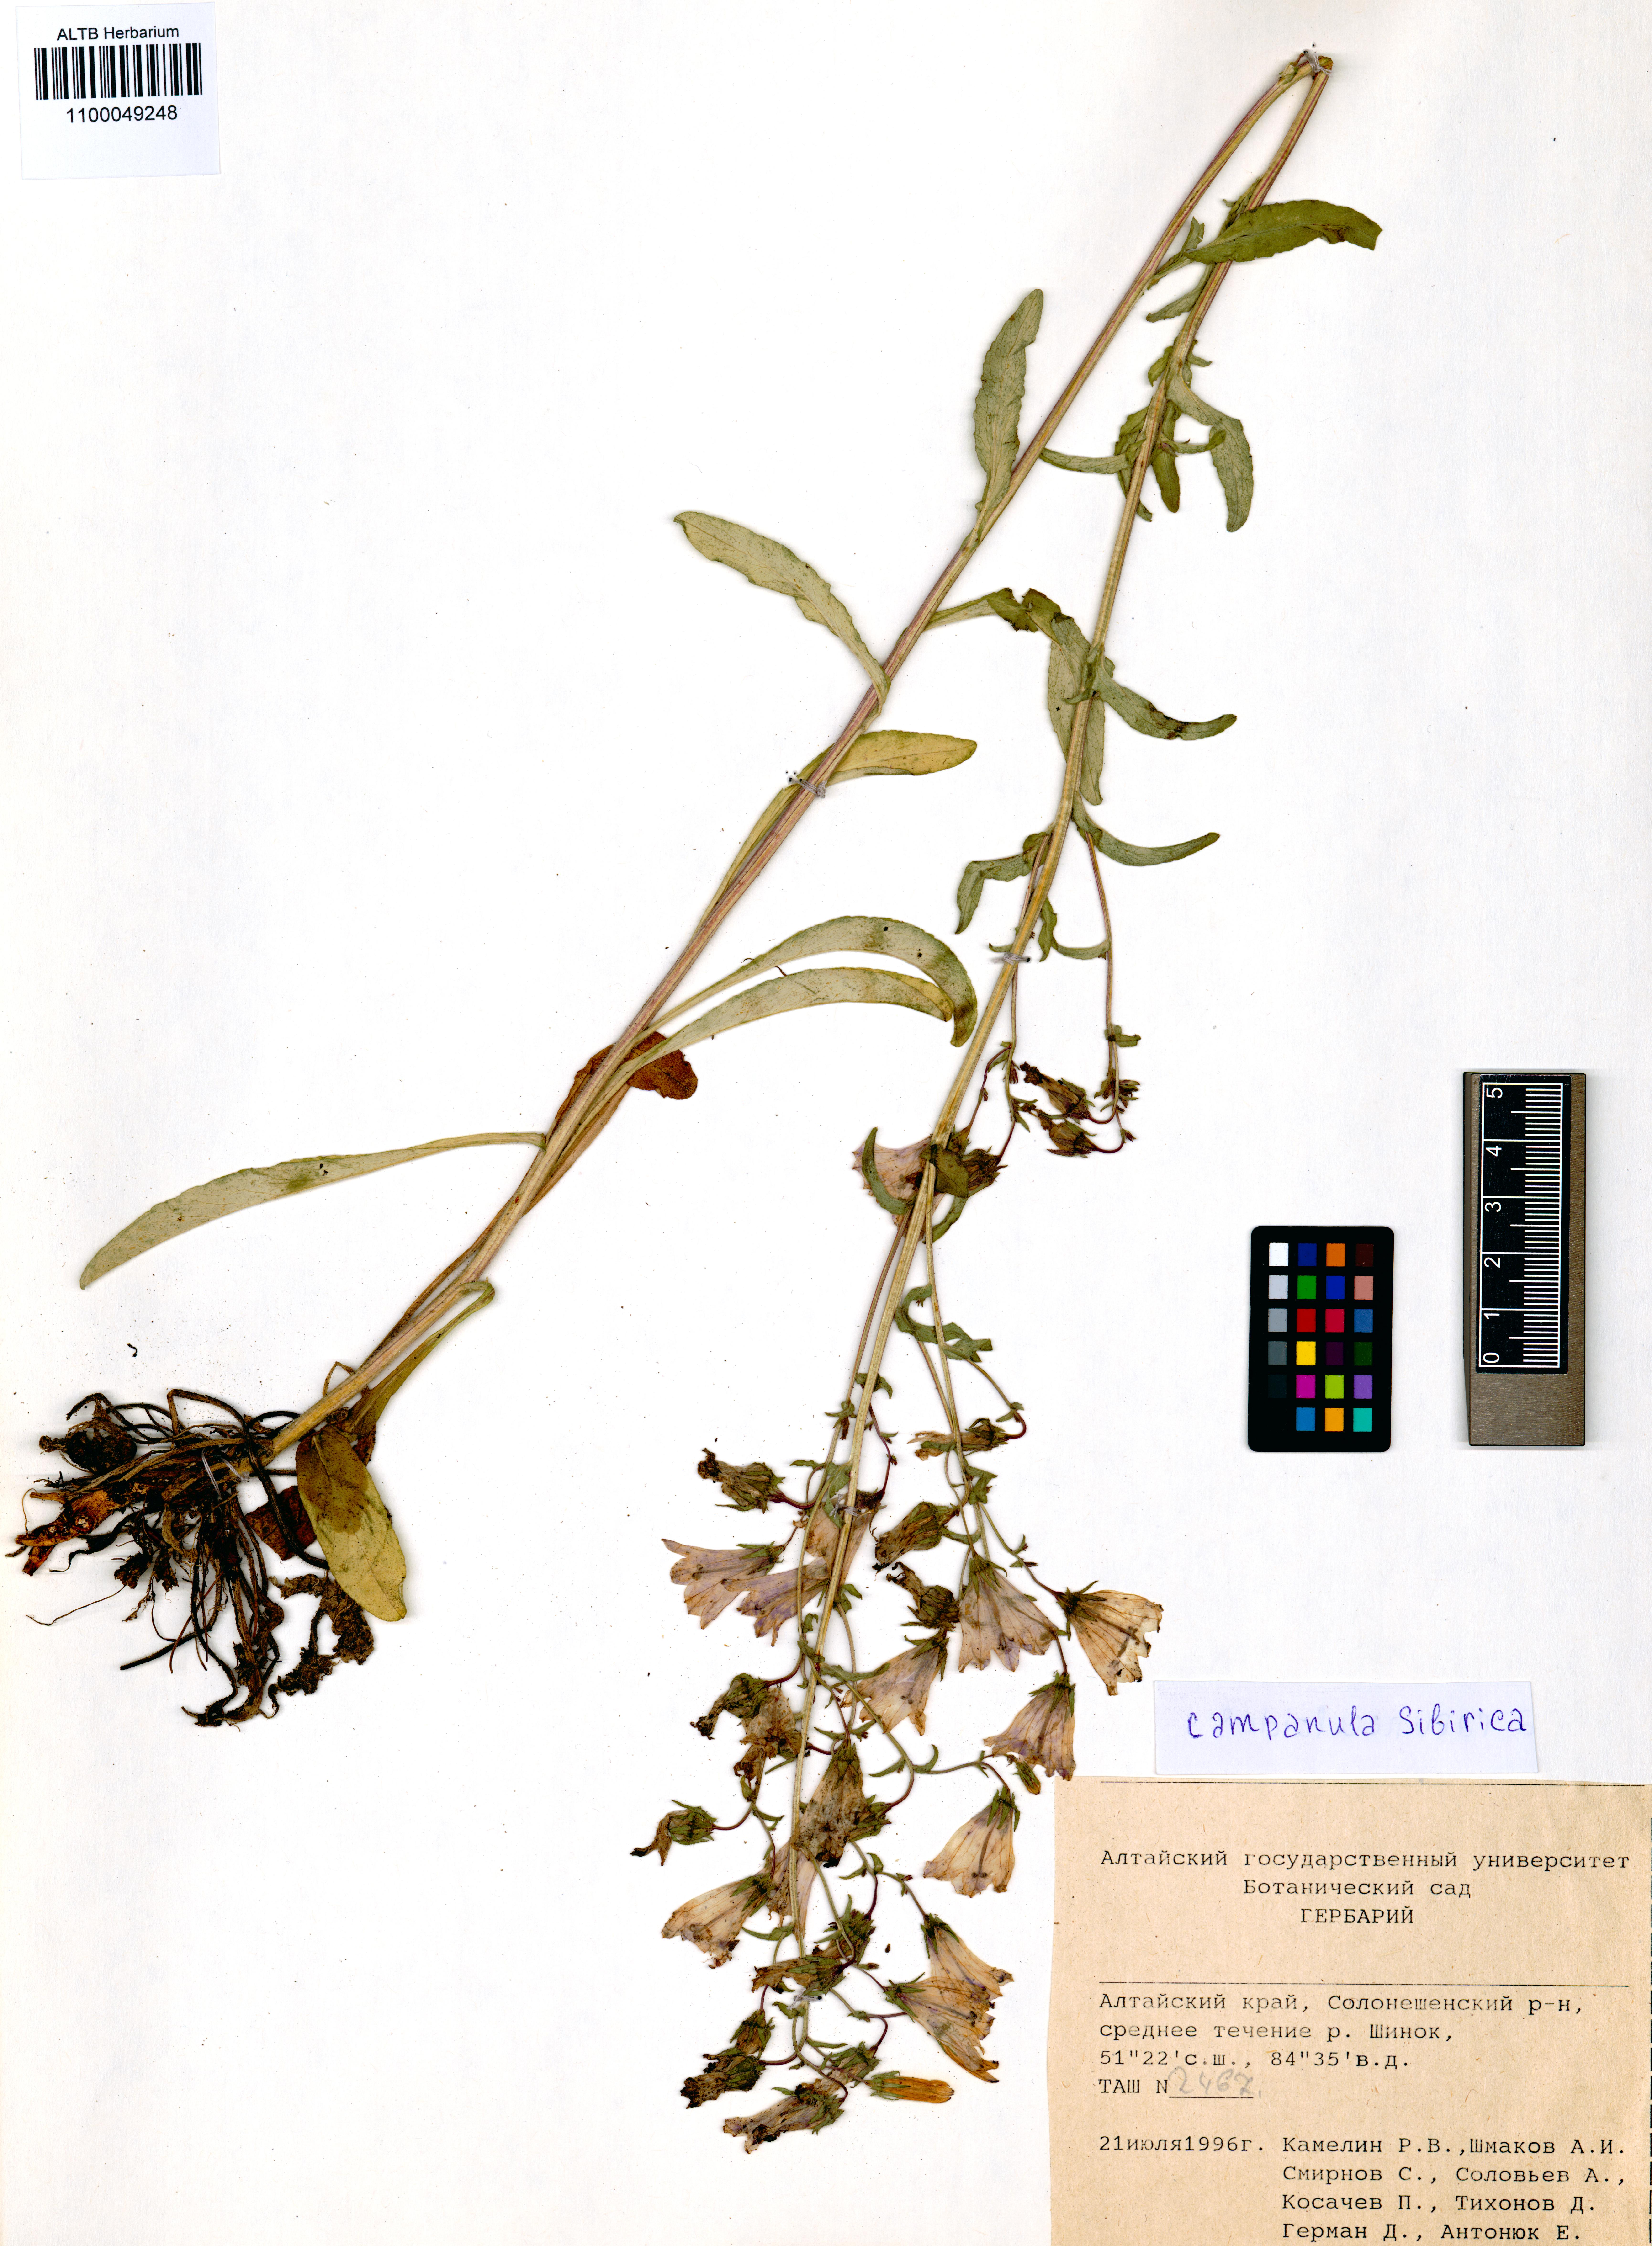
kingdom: Plantae
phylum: Tracheophyta
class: Magnoliopsida
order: Asterales
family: Campanulaceae
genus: Campanula
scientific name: Campanula sibirica
